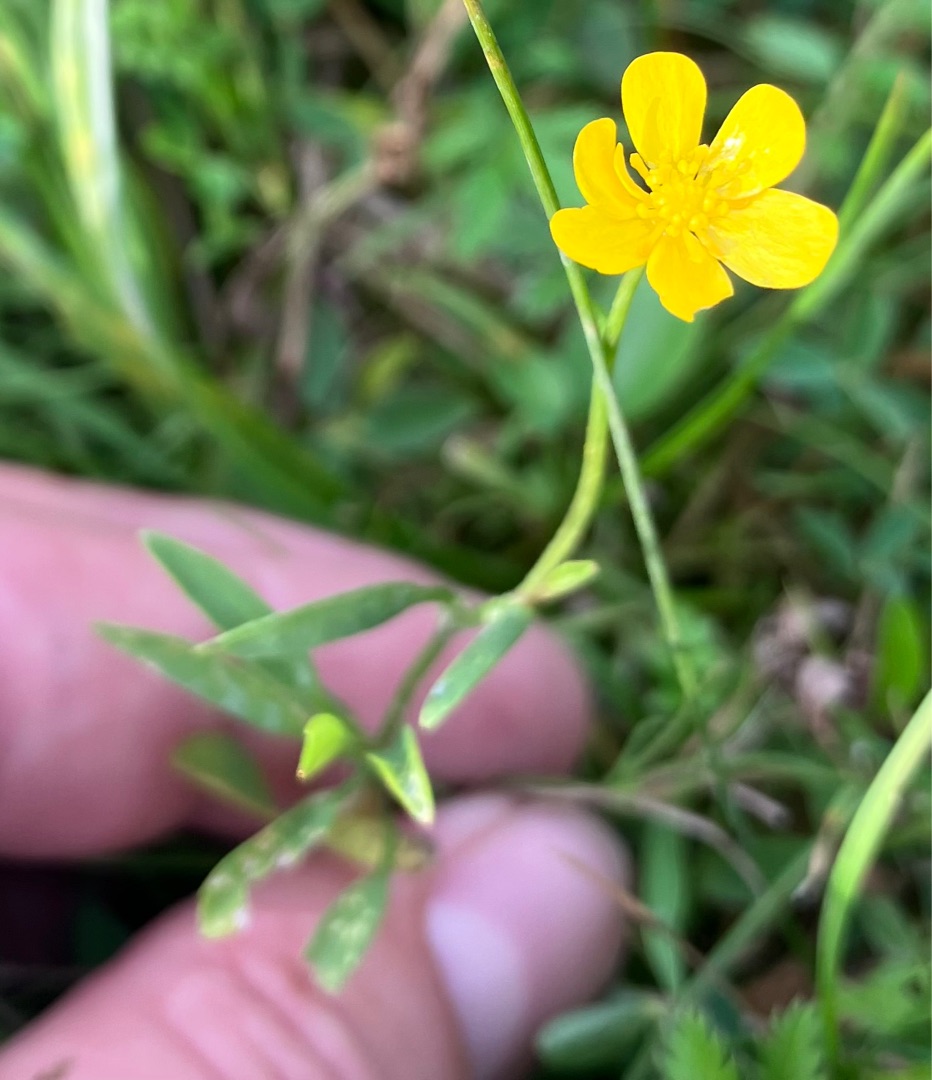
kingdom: Plantae
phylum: Tracheophyta
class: Magnoliopsida
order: Ranunculales
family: Ranunculaceae
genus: Ranunculus
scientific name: Ranunculus flammula
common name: Kær-ranunkel
